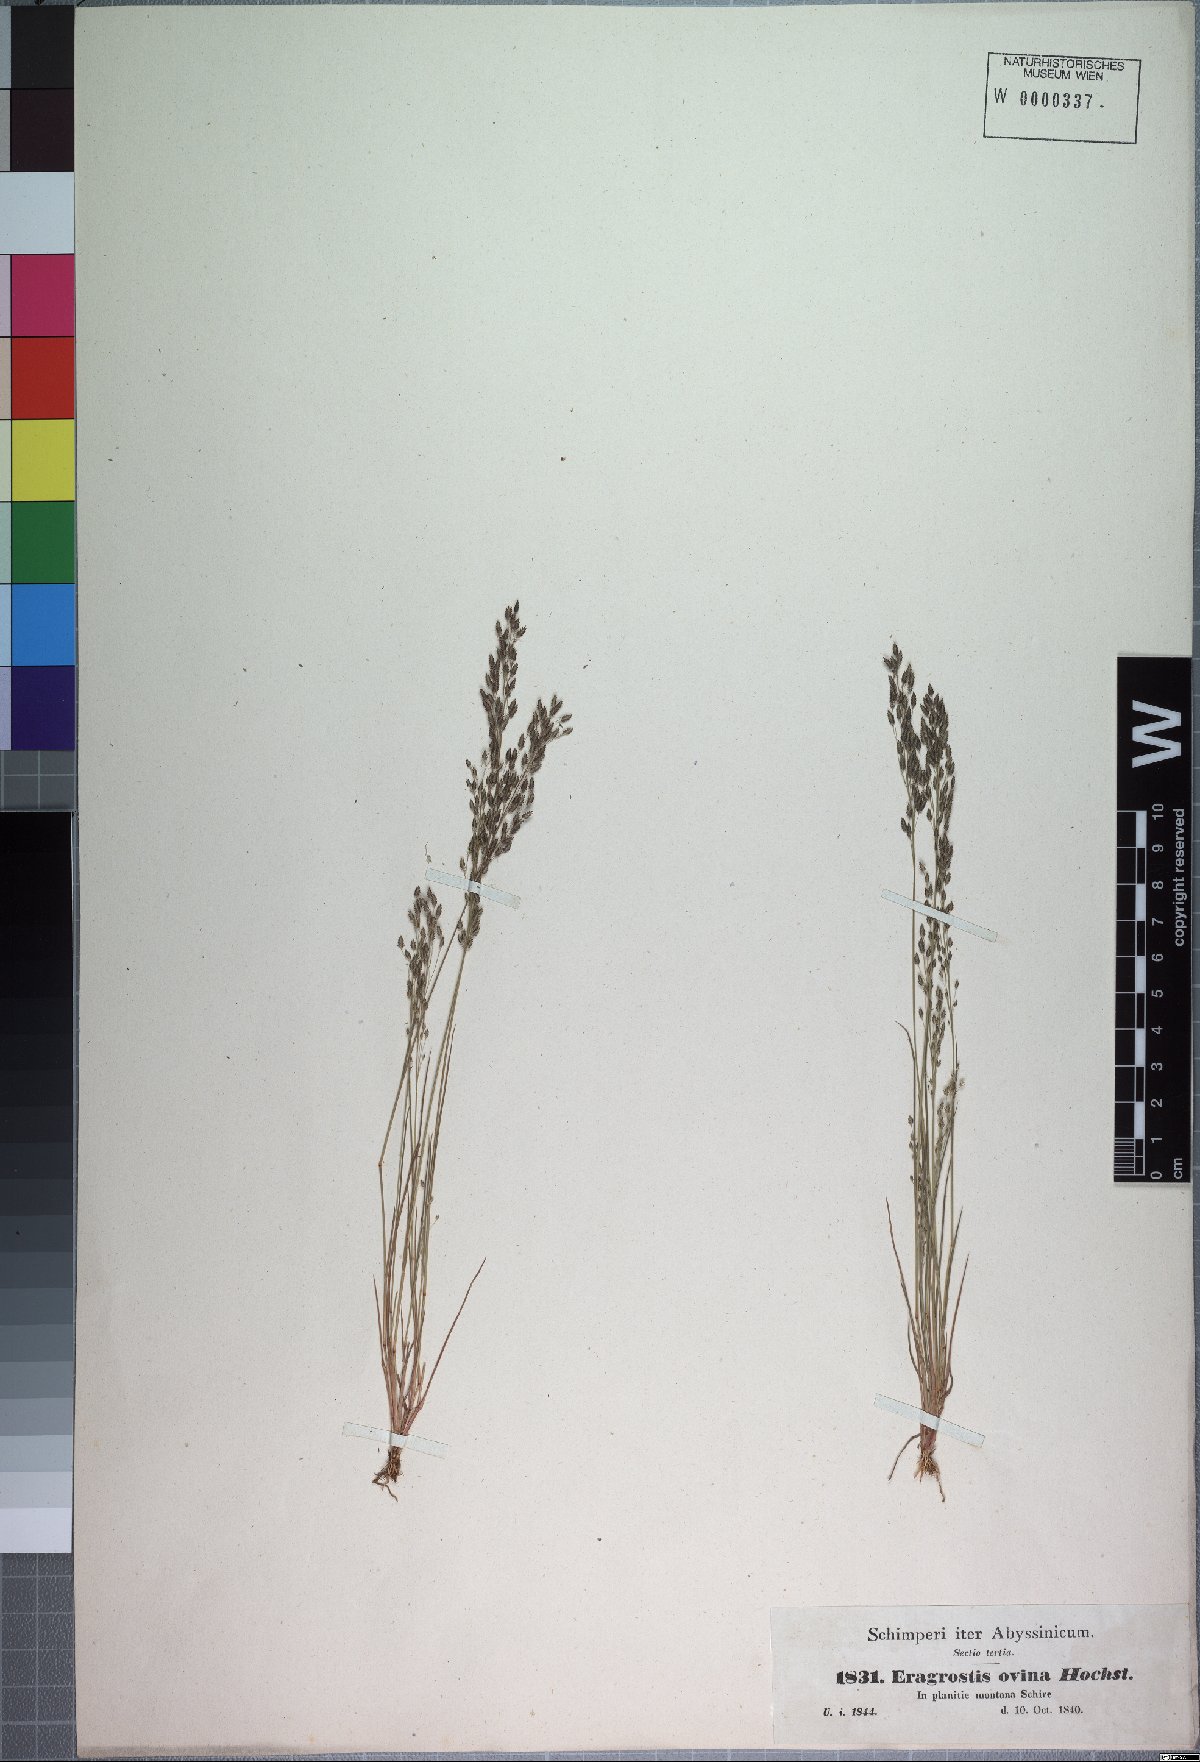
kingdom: Plantae
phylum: Tracheophyta
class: Liliopsida
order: Poales
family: Poaceae
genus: Eragrostis
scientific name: Eragrostis gangetica
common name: Slimflower lovegrass
